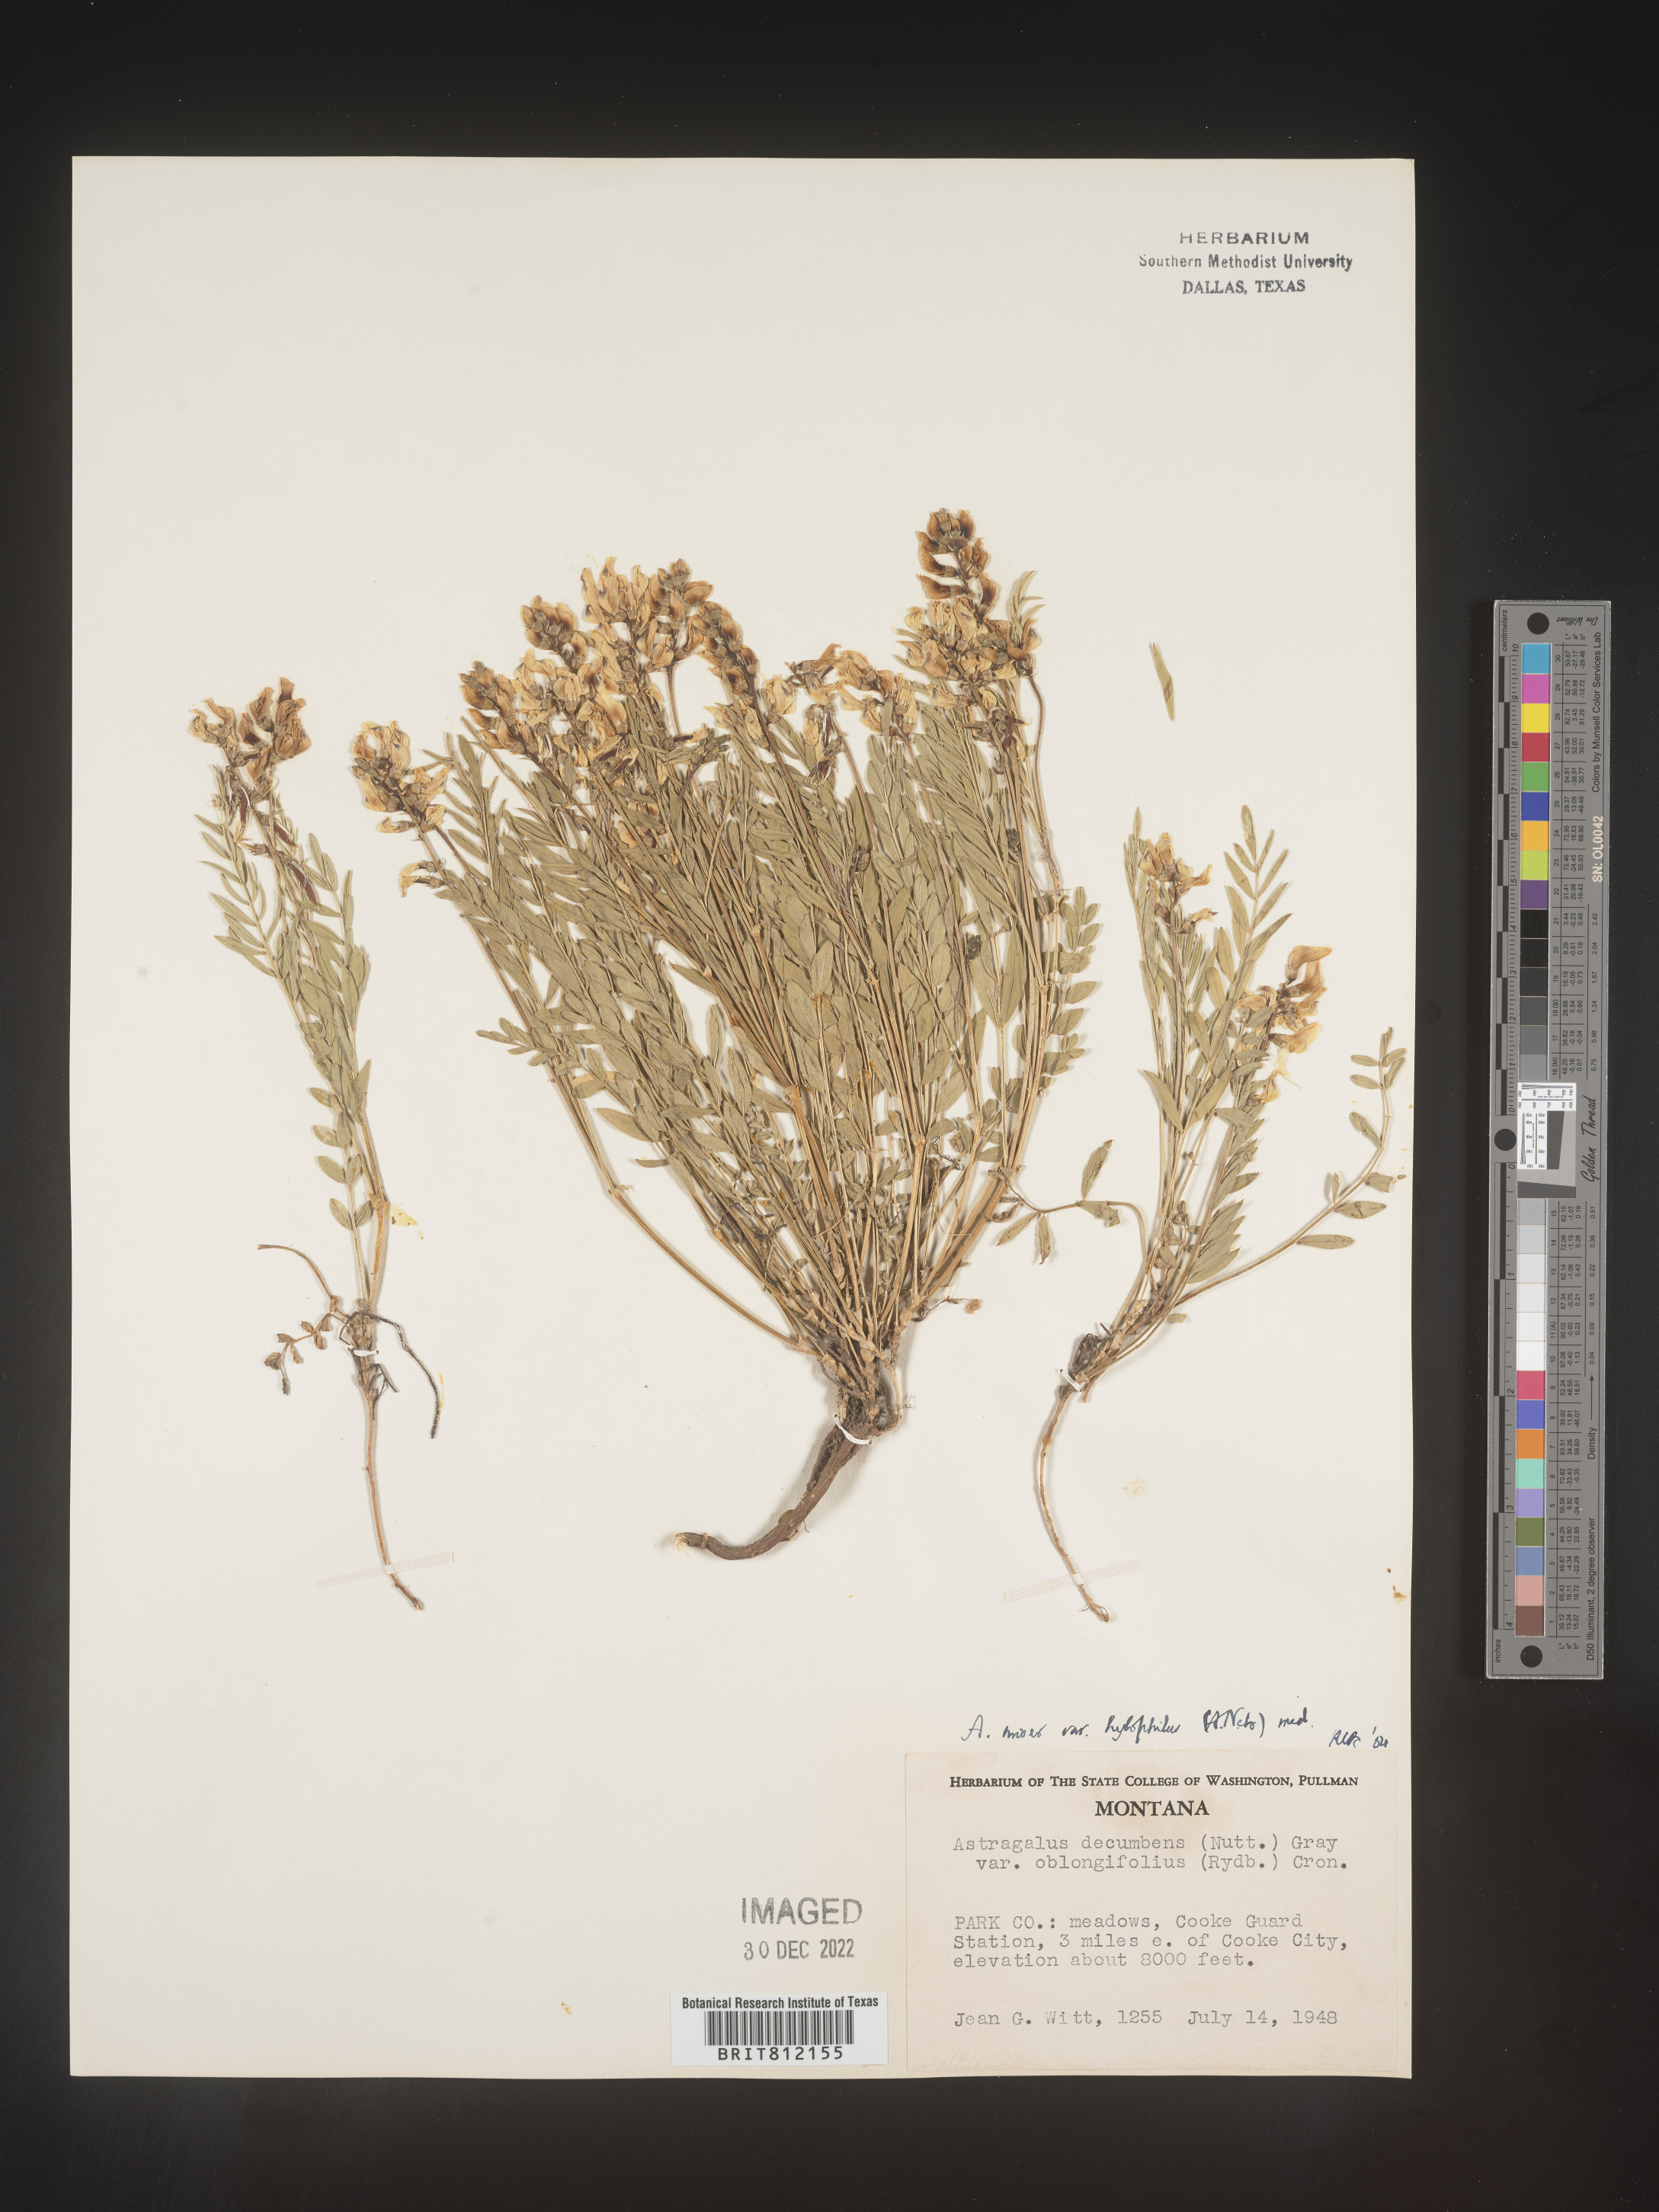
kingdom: Plantae
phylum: Tracheophyta
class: Magnoliopsida
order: Fabales
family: Fabaceae
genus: Astragalus
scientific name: Astragalus miser
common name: Timber milkvetch
